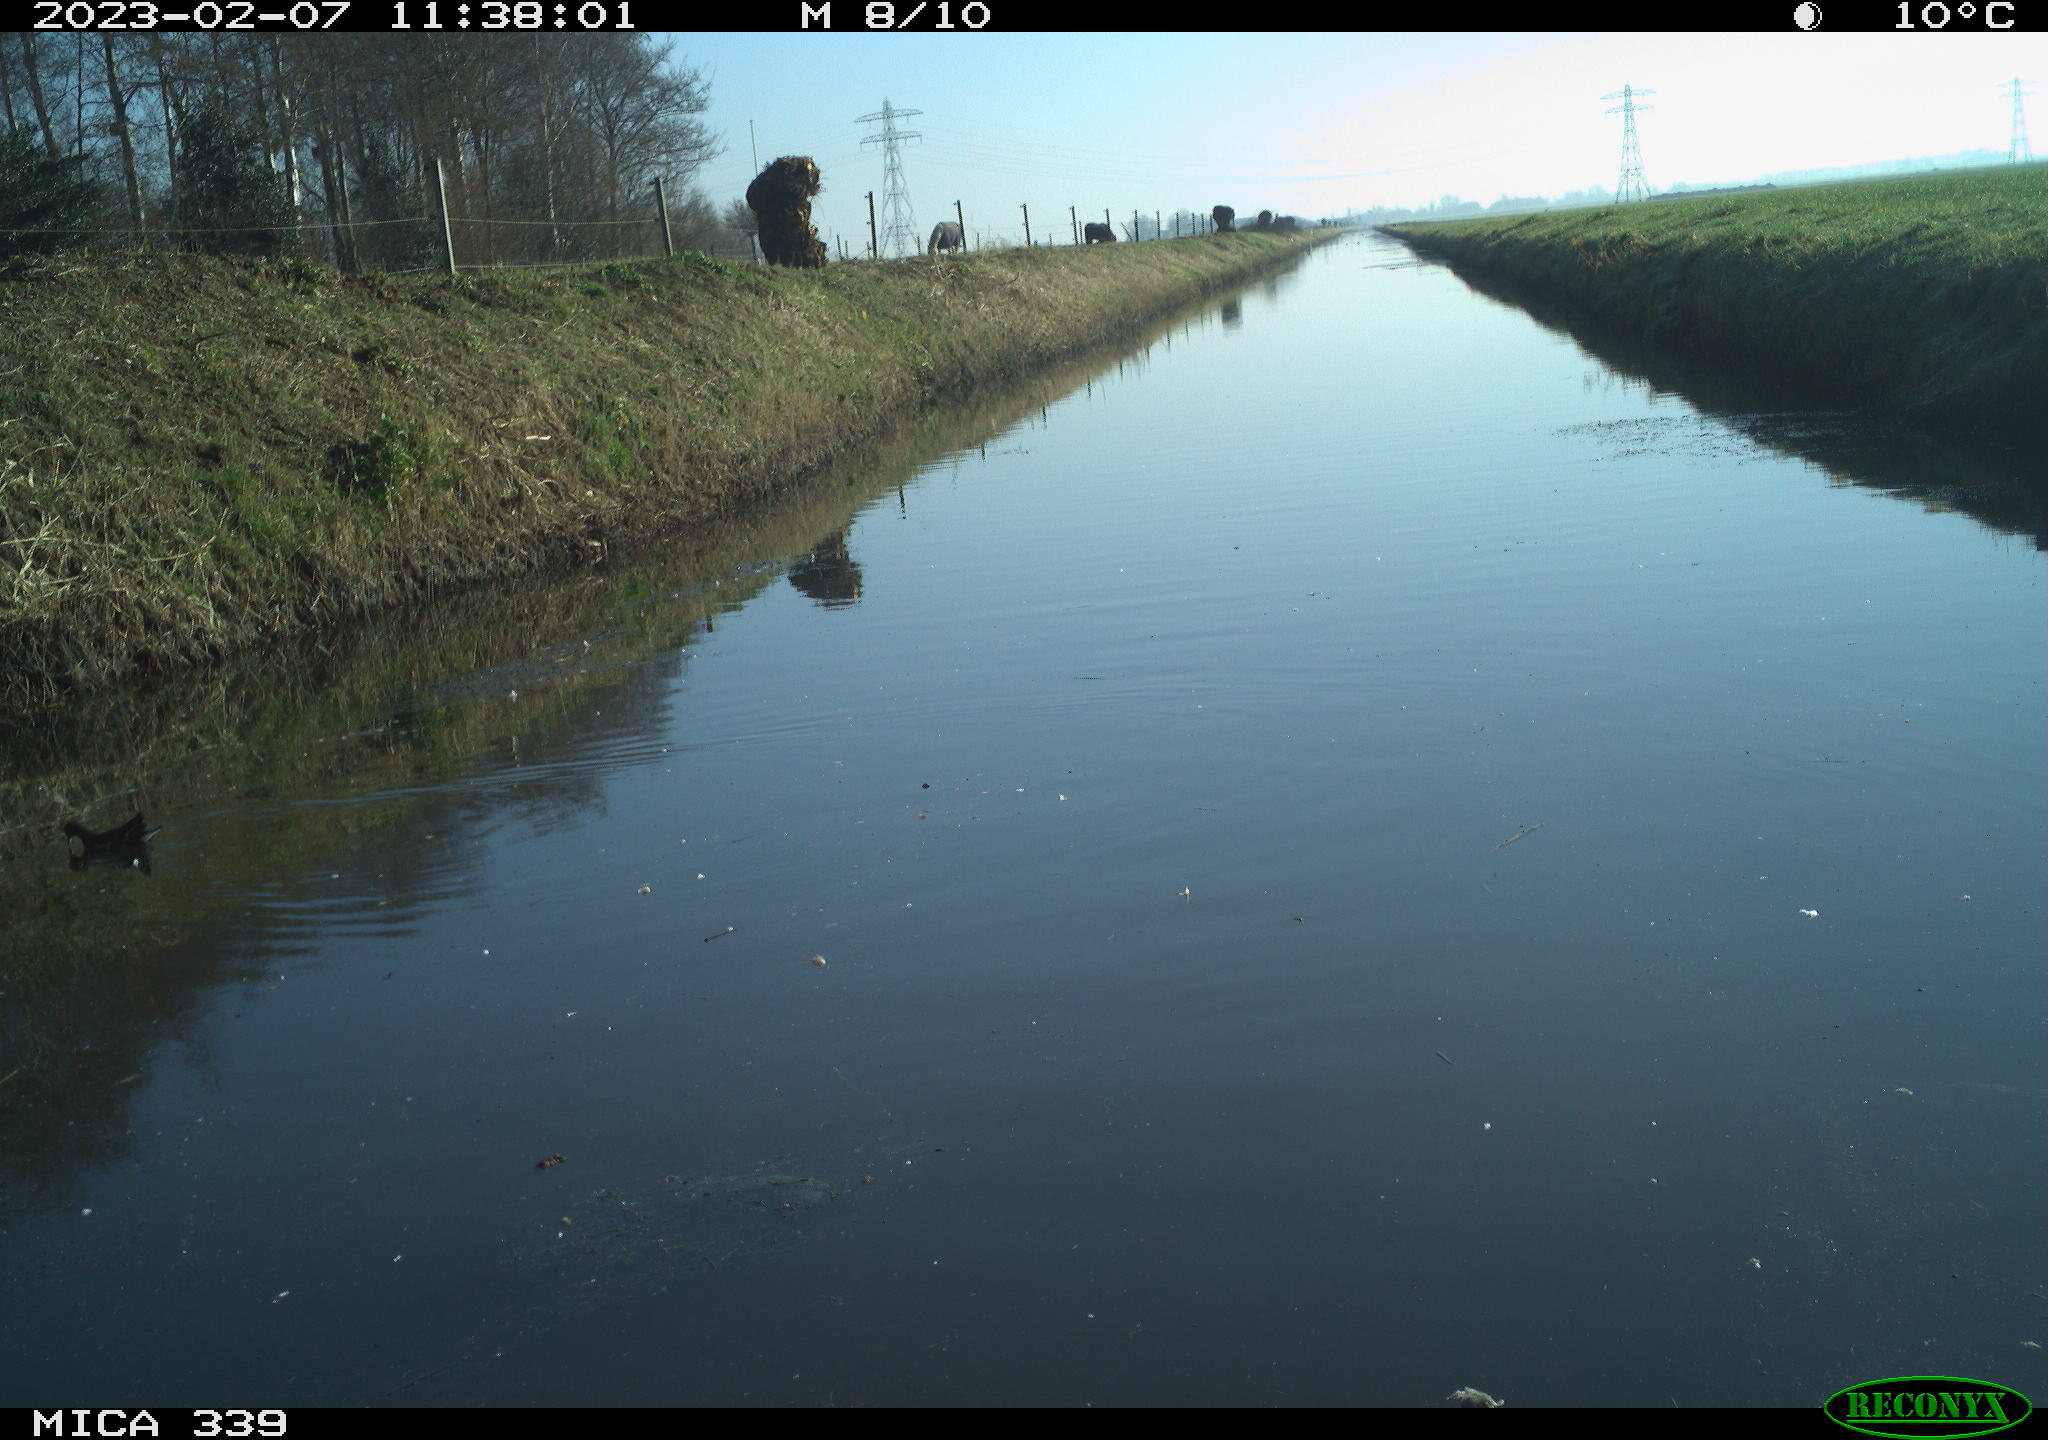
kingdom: Animalia
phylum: Chordata
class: Aves
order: Gruiformes
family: Rallidae
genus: Gallinula
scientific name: Gallinula chloropus
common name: Common moorhen
